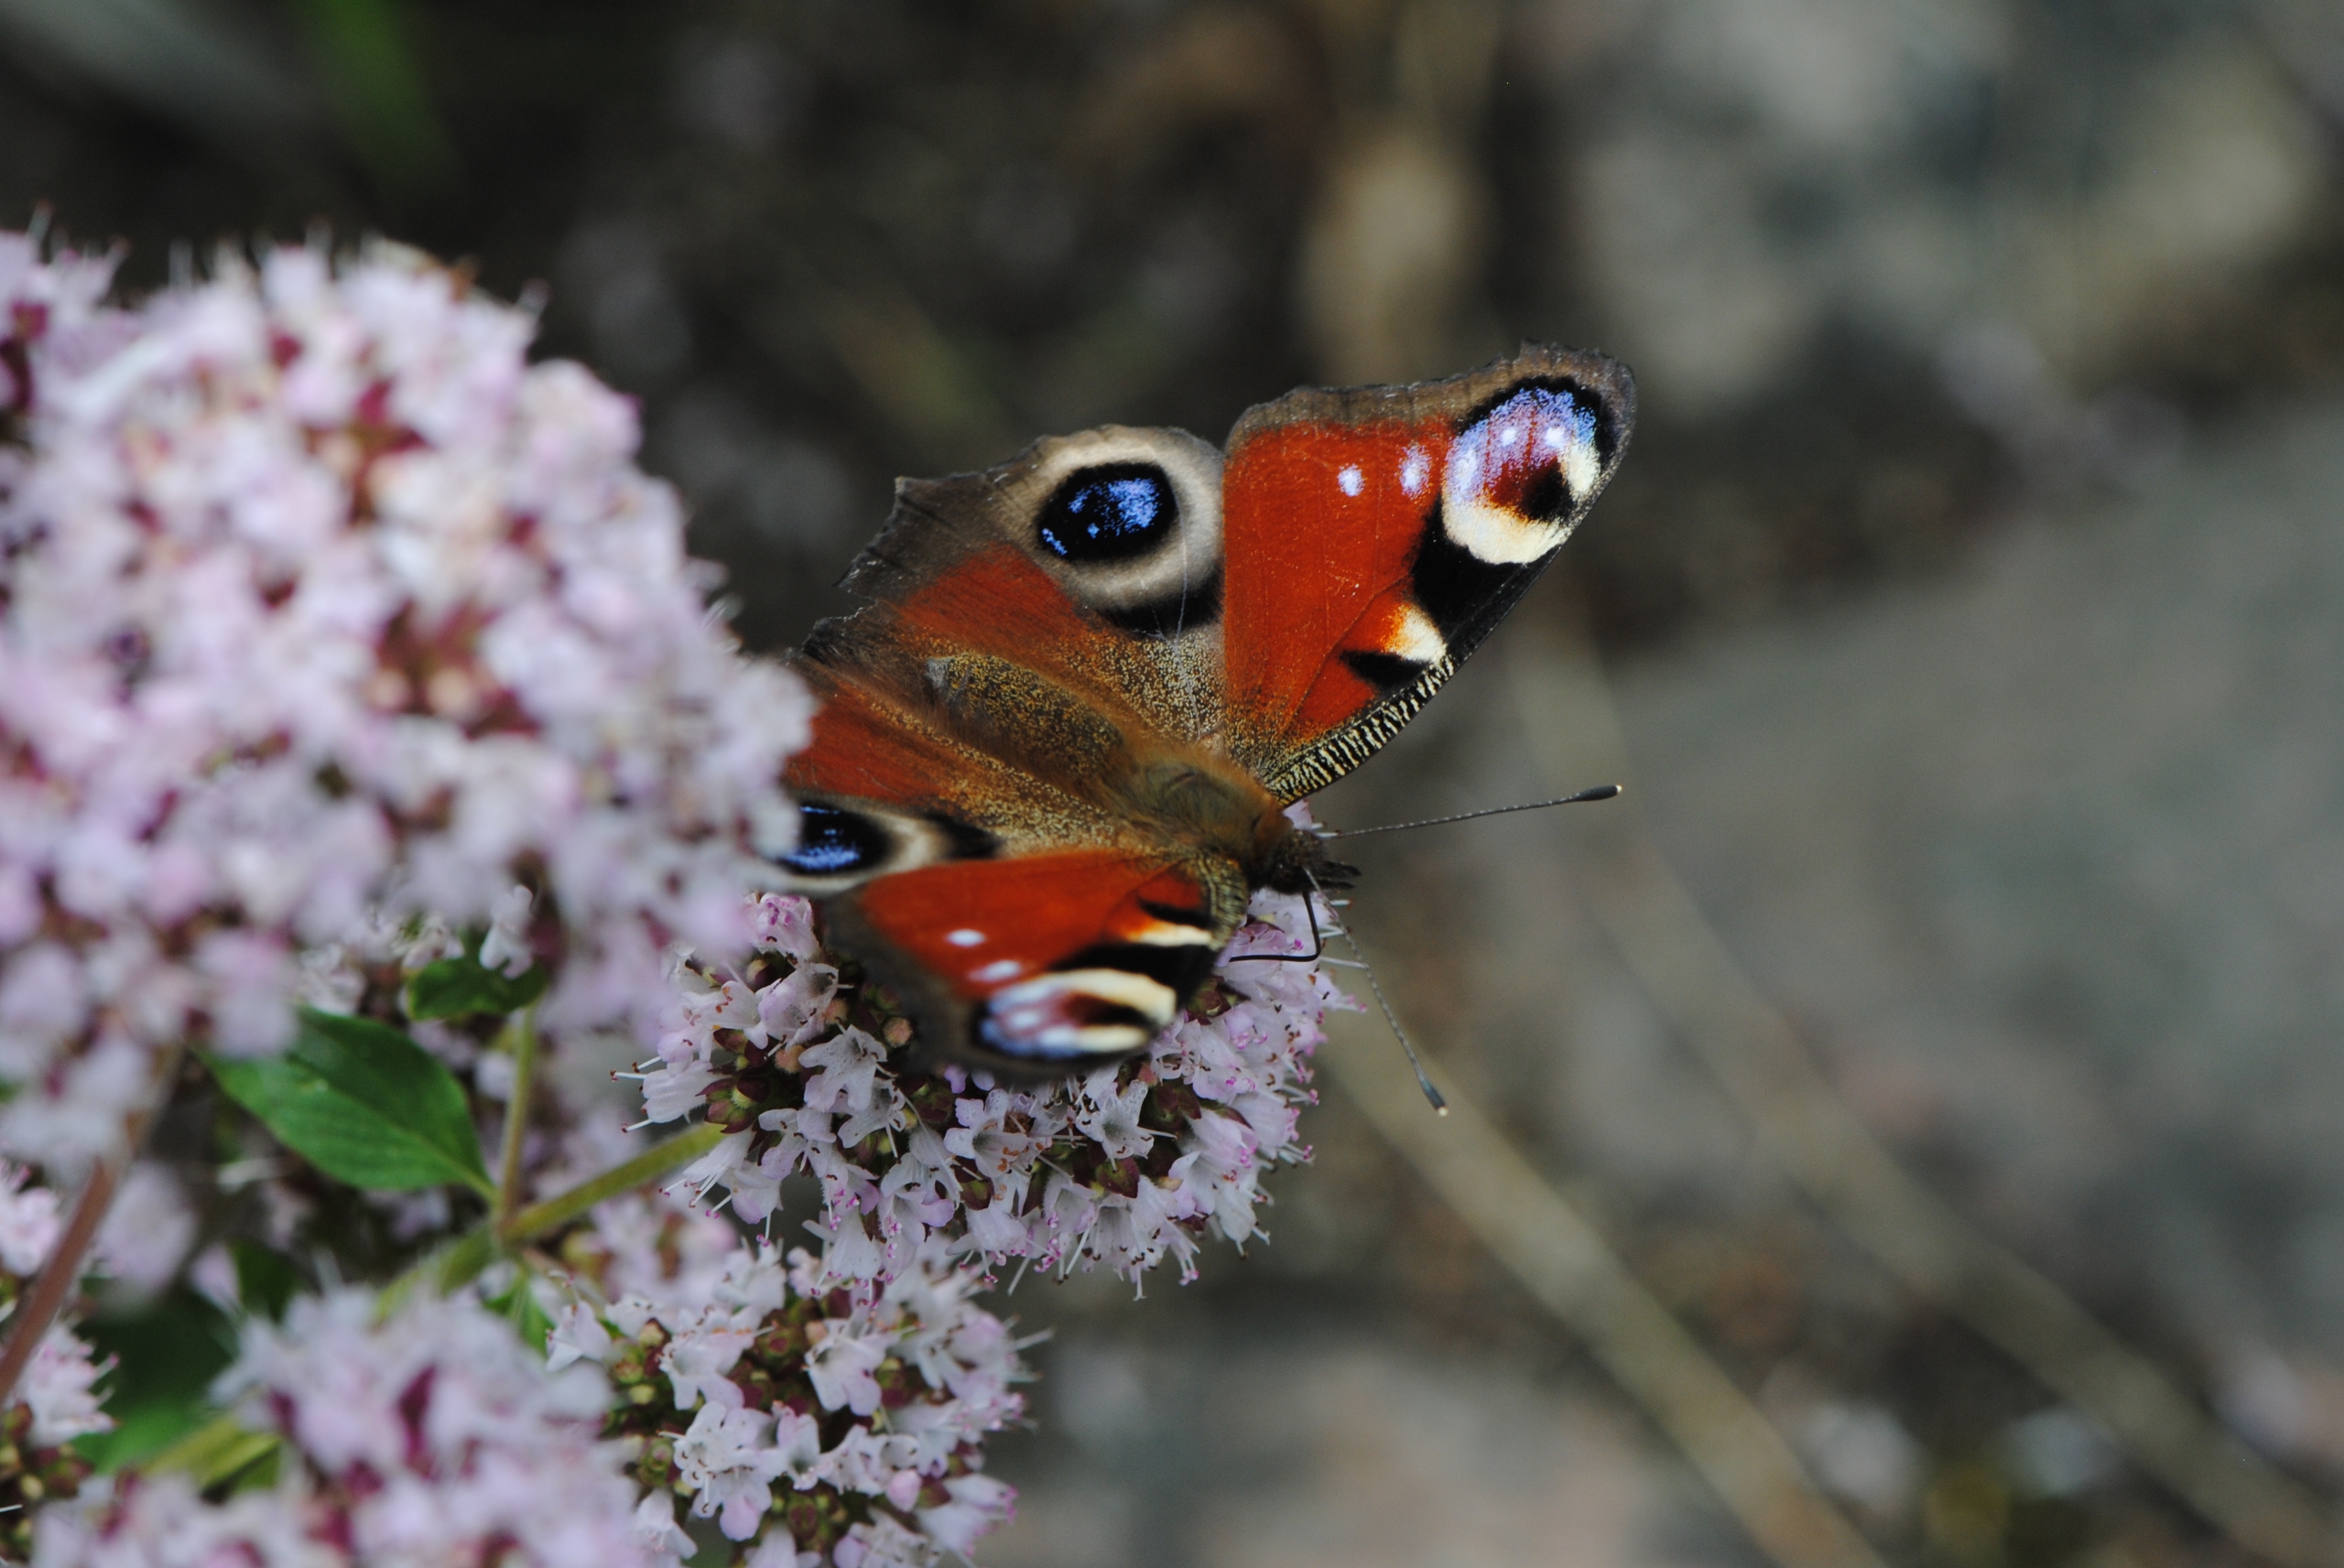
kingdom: Animalia
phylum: Arthropoda
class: Insecta
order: Lepidoptera
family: Nymphalidae
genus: Aglais
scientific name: Aglais io
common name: Dagpåfugleøje
